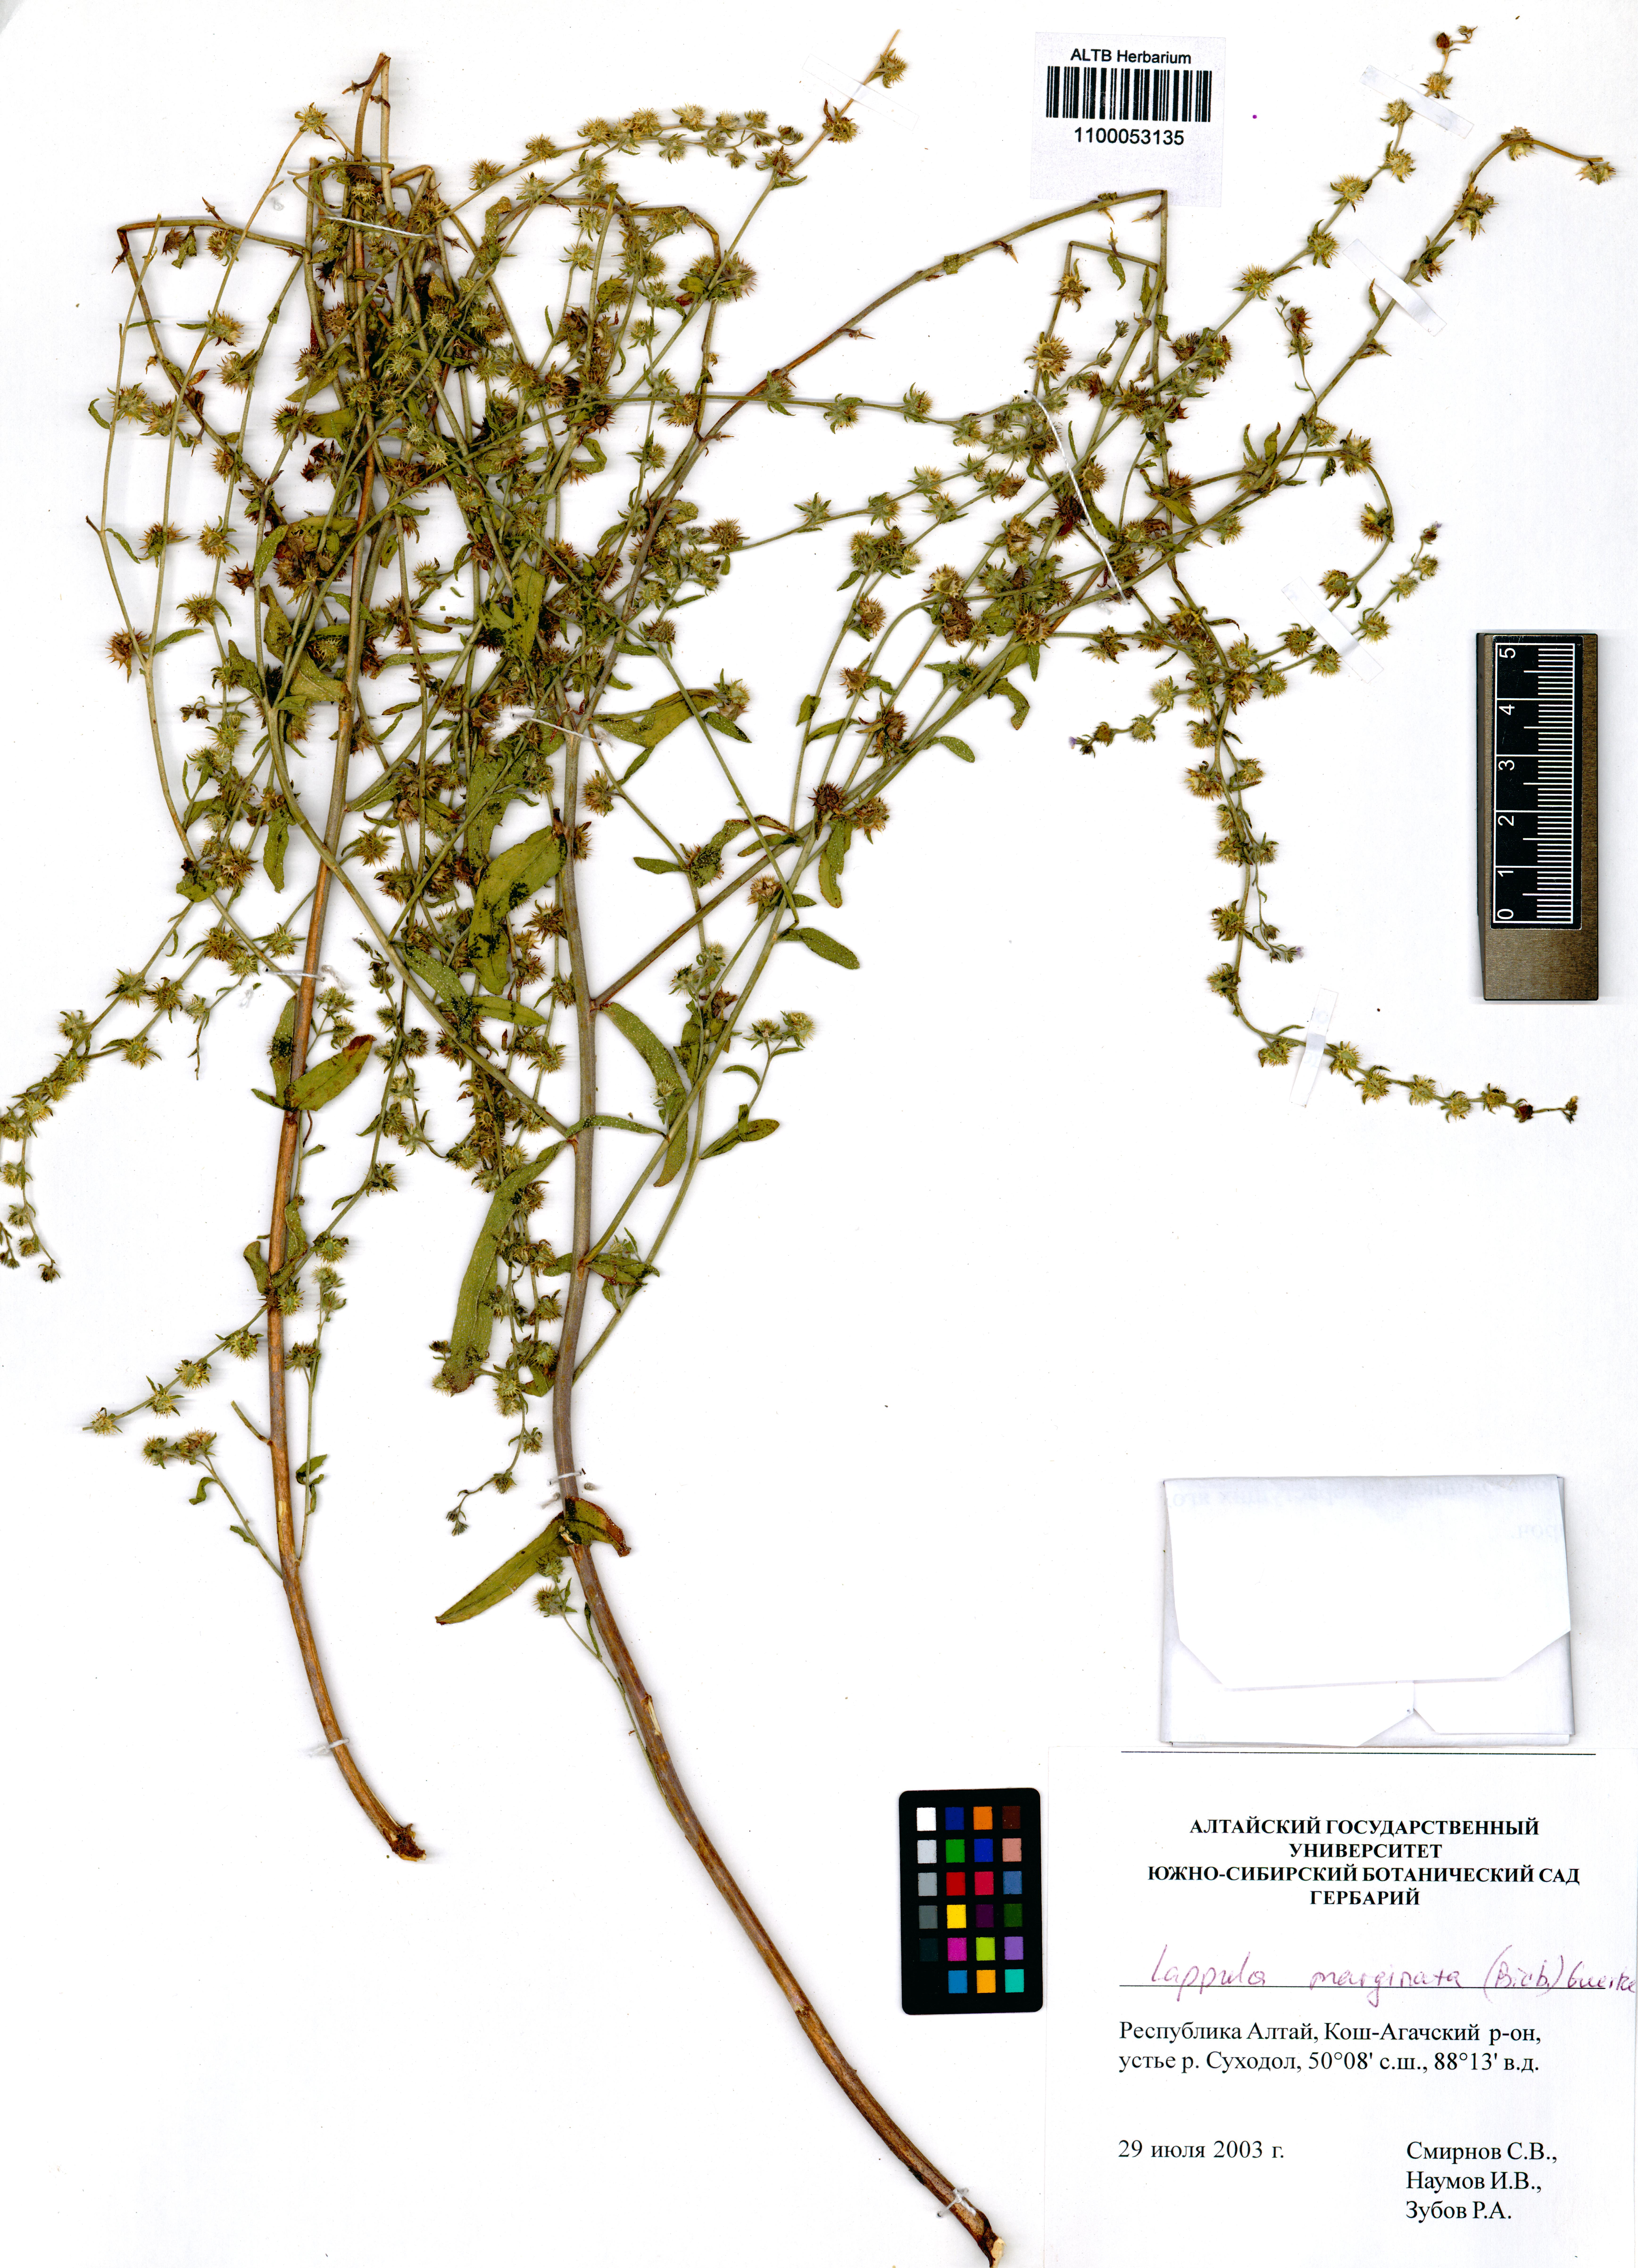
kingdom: Plantae
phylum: Tracheophyta
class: Magnoliopsida
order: Boraginales
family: Boraginaceae
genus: Lappula
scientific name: Lappula marginata
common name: Margined stickseed
